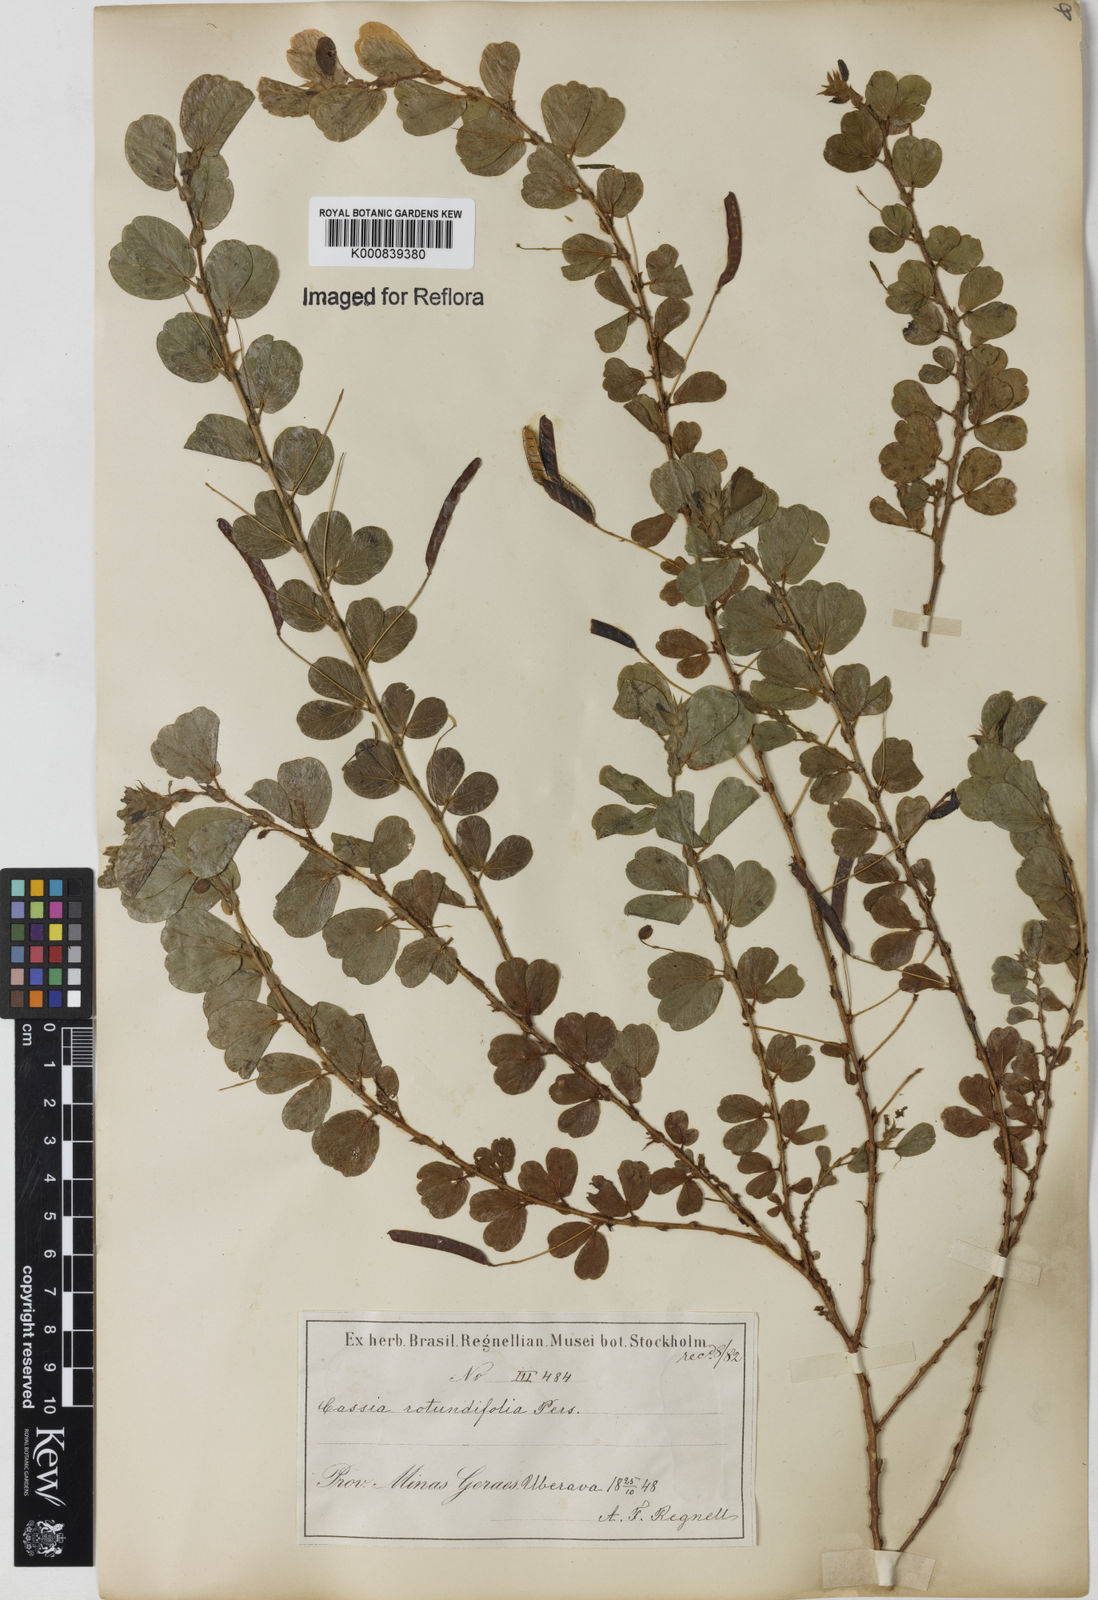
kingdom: Plantae
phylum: Tracheophyta
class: Magnoliopsida
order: Fabales
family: Fabaceae
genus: Chamaecrista
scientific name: Chamaecrista rotundifolia
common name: Round-leaf cassia
